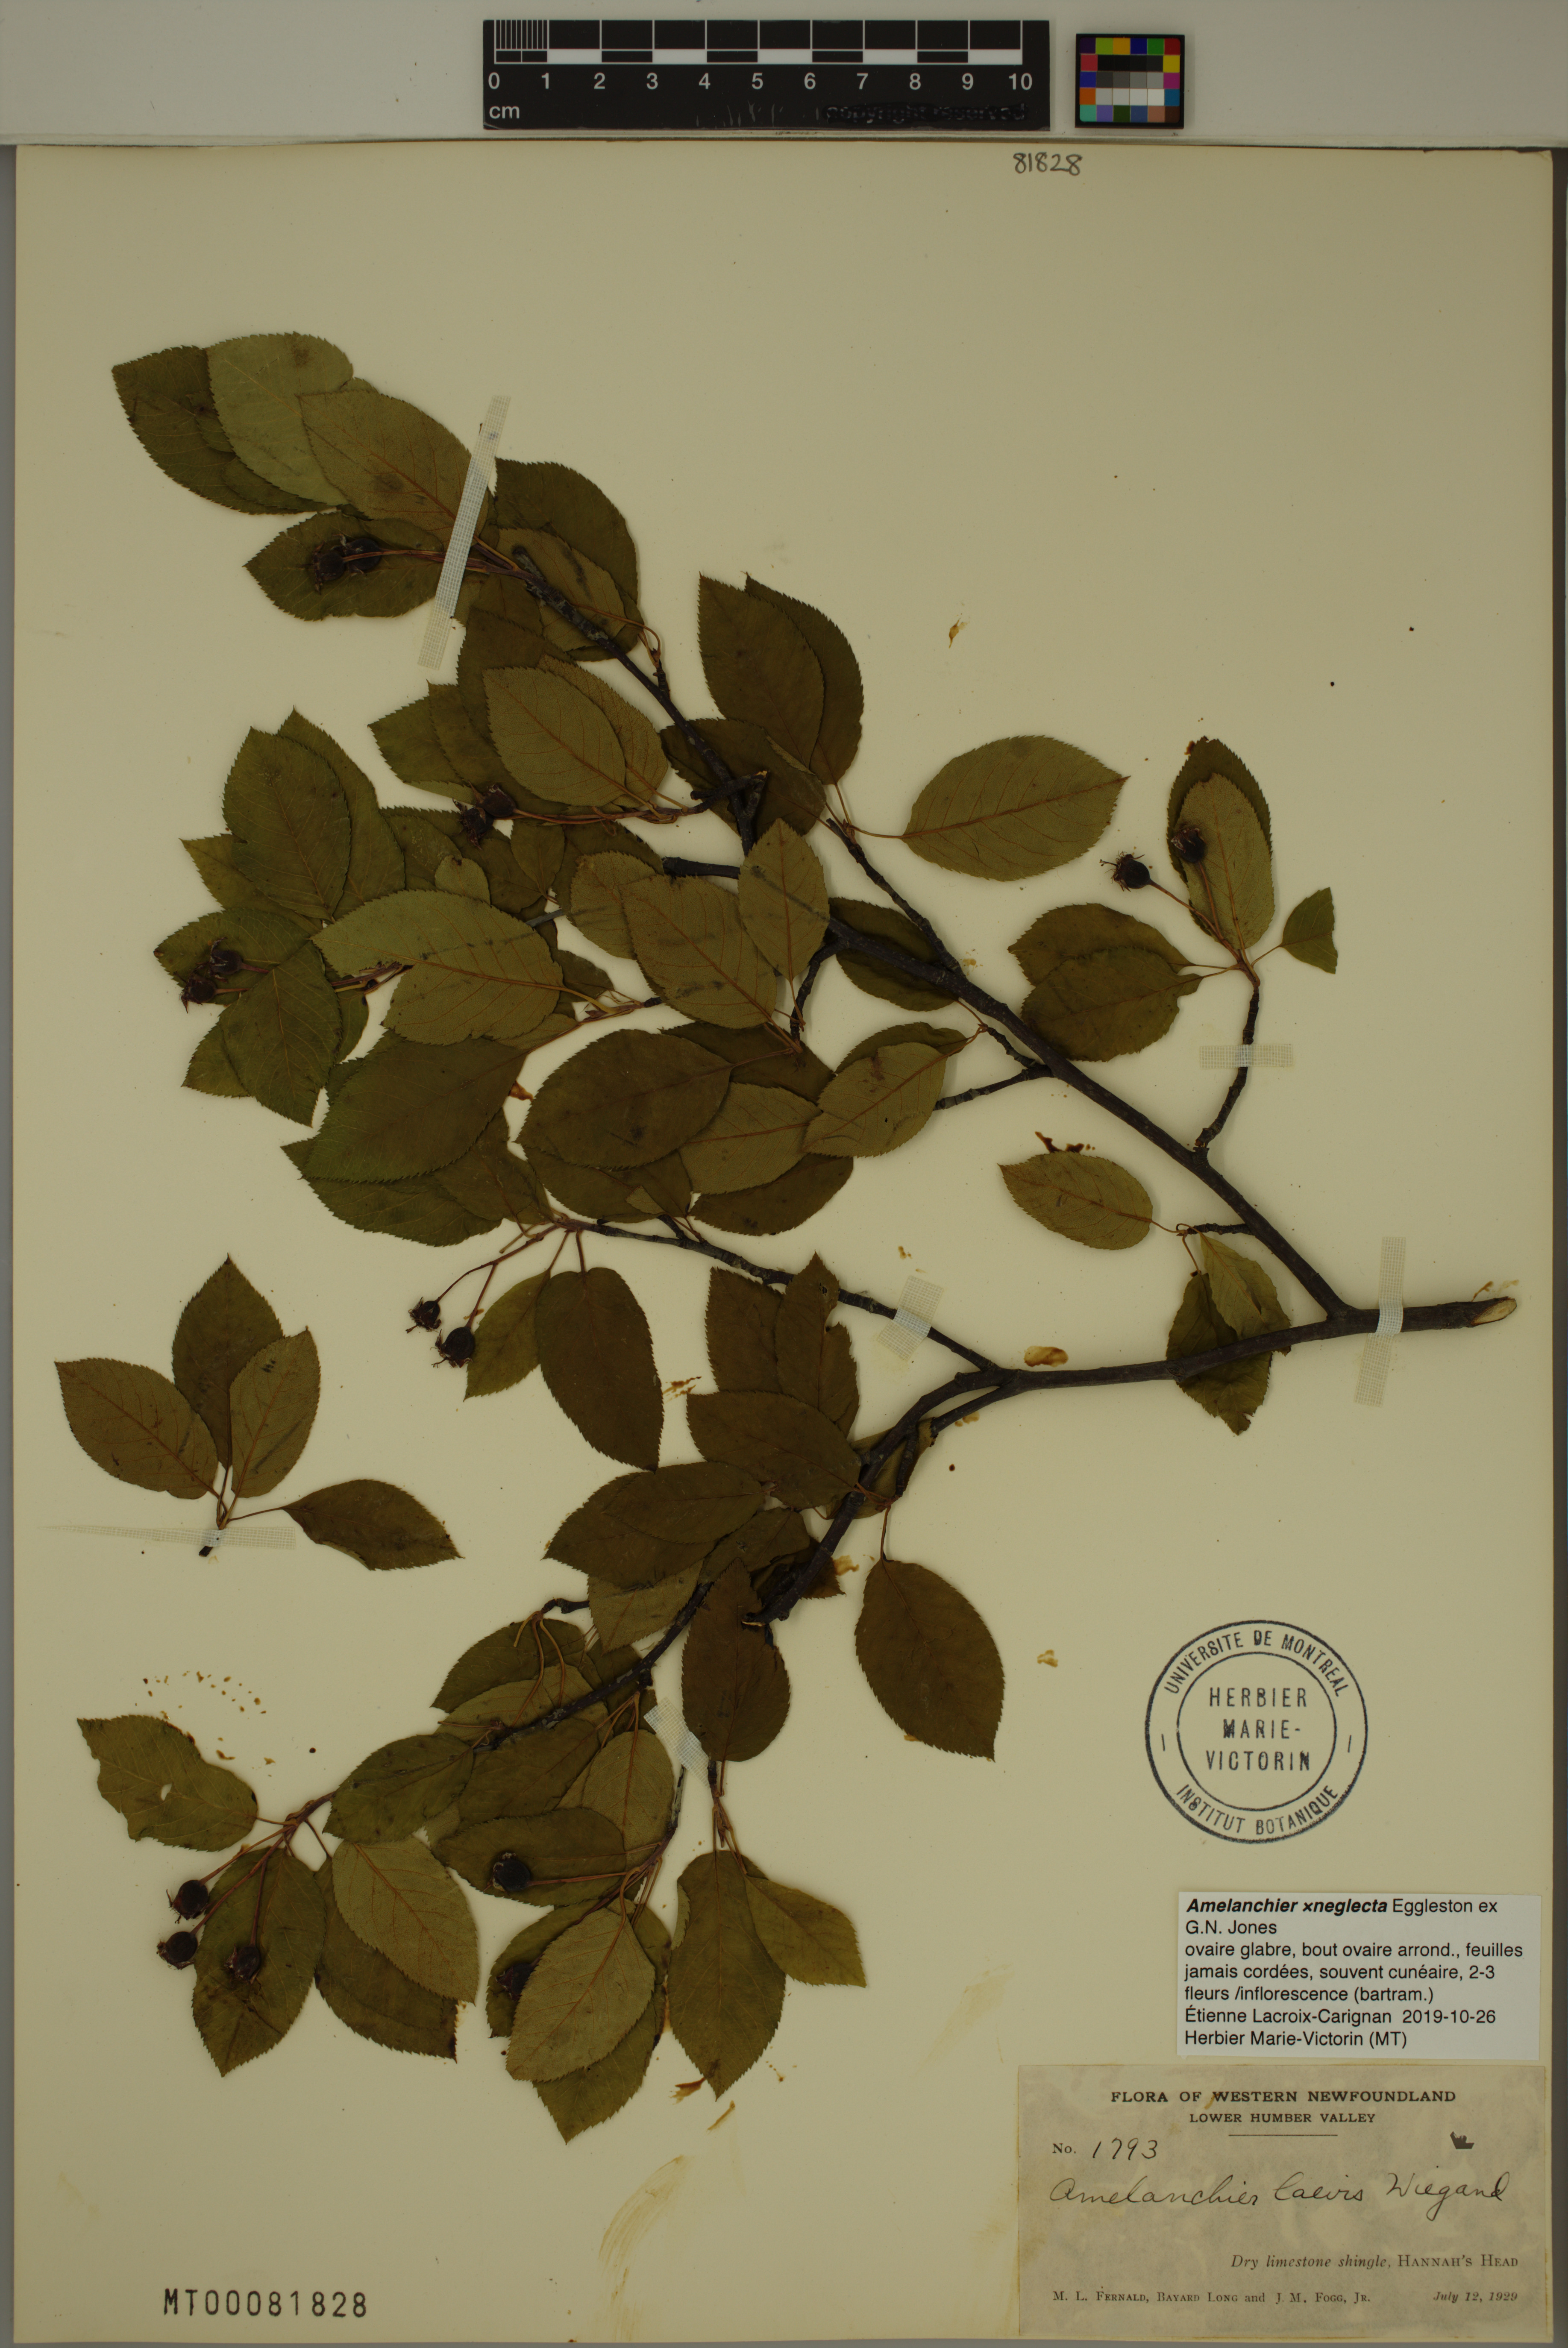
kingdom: Plantae
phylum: Tracheophyta
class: Magnoliopsida
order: Rosales
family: Rosaceae
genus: Amelanchier
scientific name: Amelanchier neglecta
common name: Overlooked serviceberry
